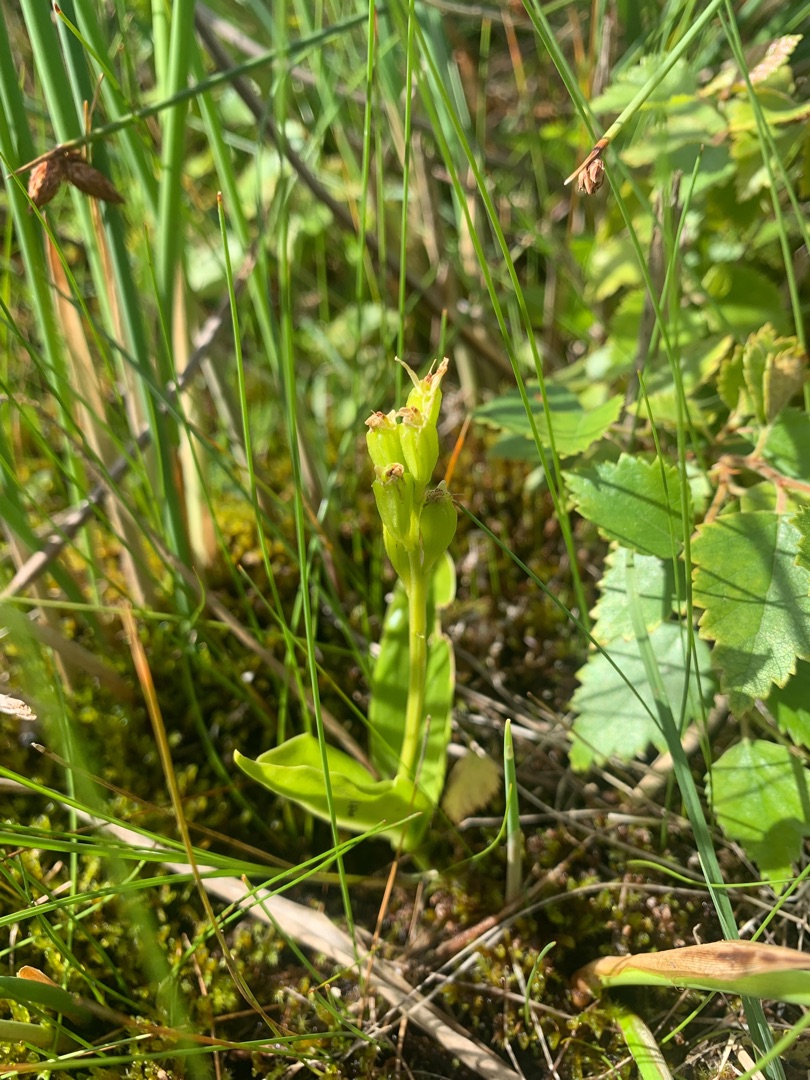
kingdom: Animalia
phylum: Arthropoda
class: Insecta
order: Coleoptera
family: Curculionidae
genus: Liparis
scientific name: Liparis loeselii
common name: Mygblomst
